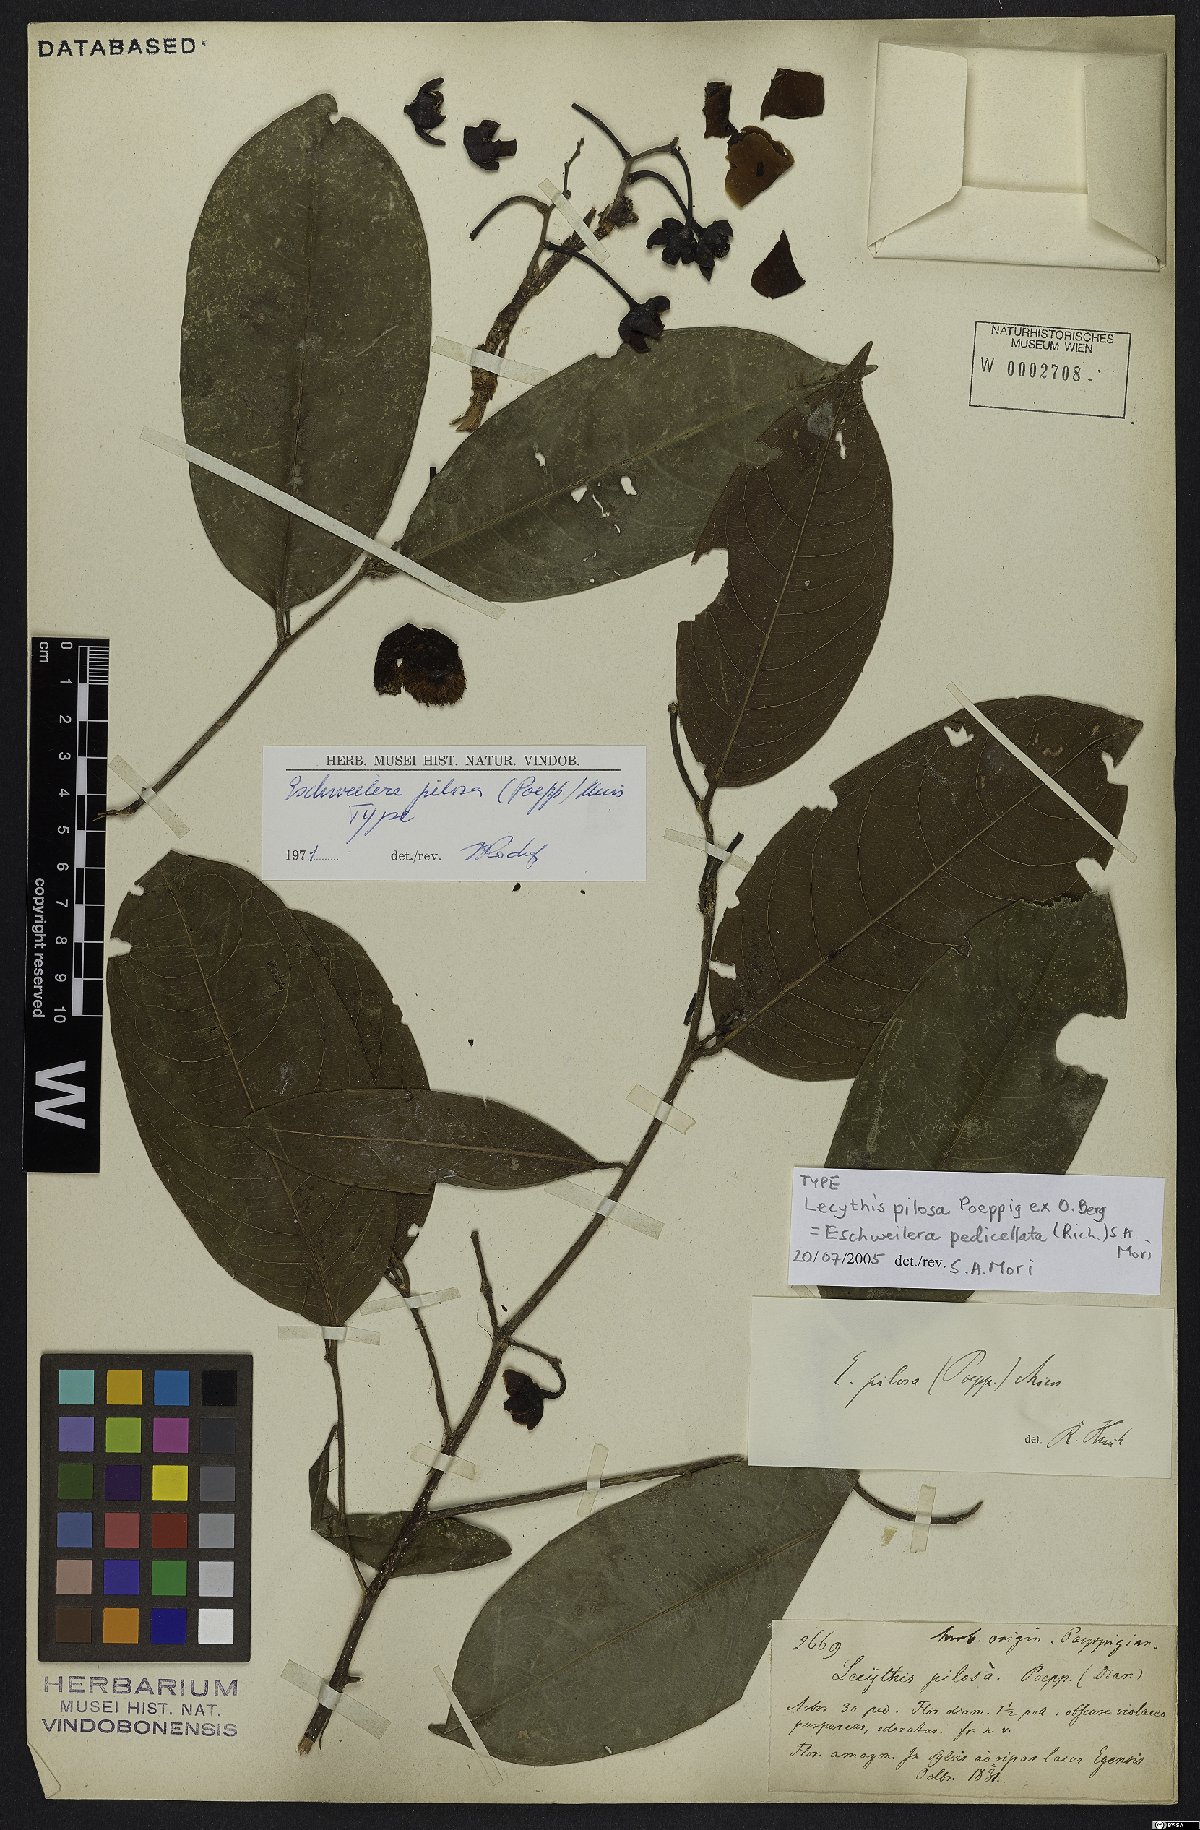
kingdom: Plantae
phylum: Tracheophyta
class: Magnoliopsida
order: Ericales
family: Lecythidaceae
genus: Eschweilera
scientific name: Eschweilera pedicellata
